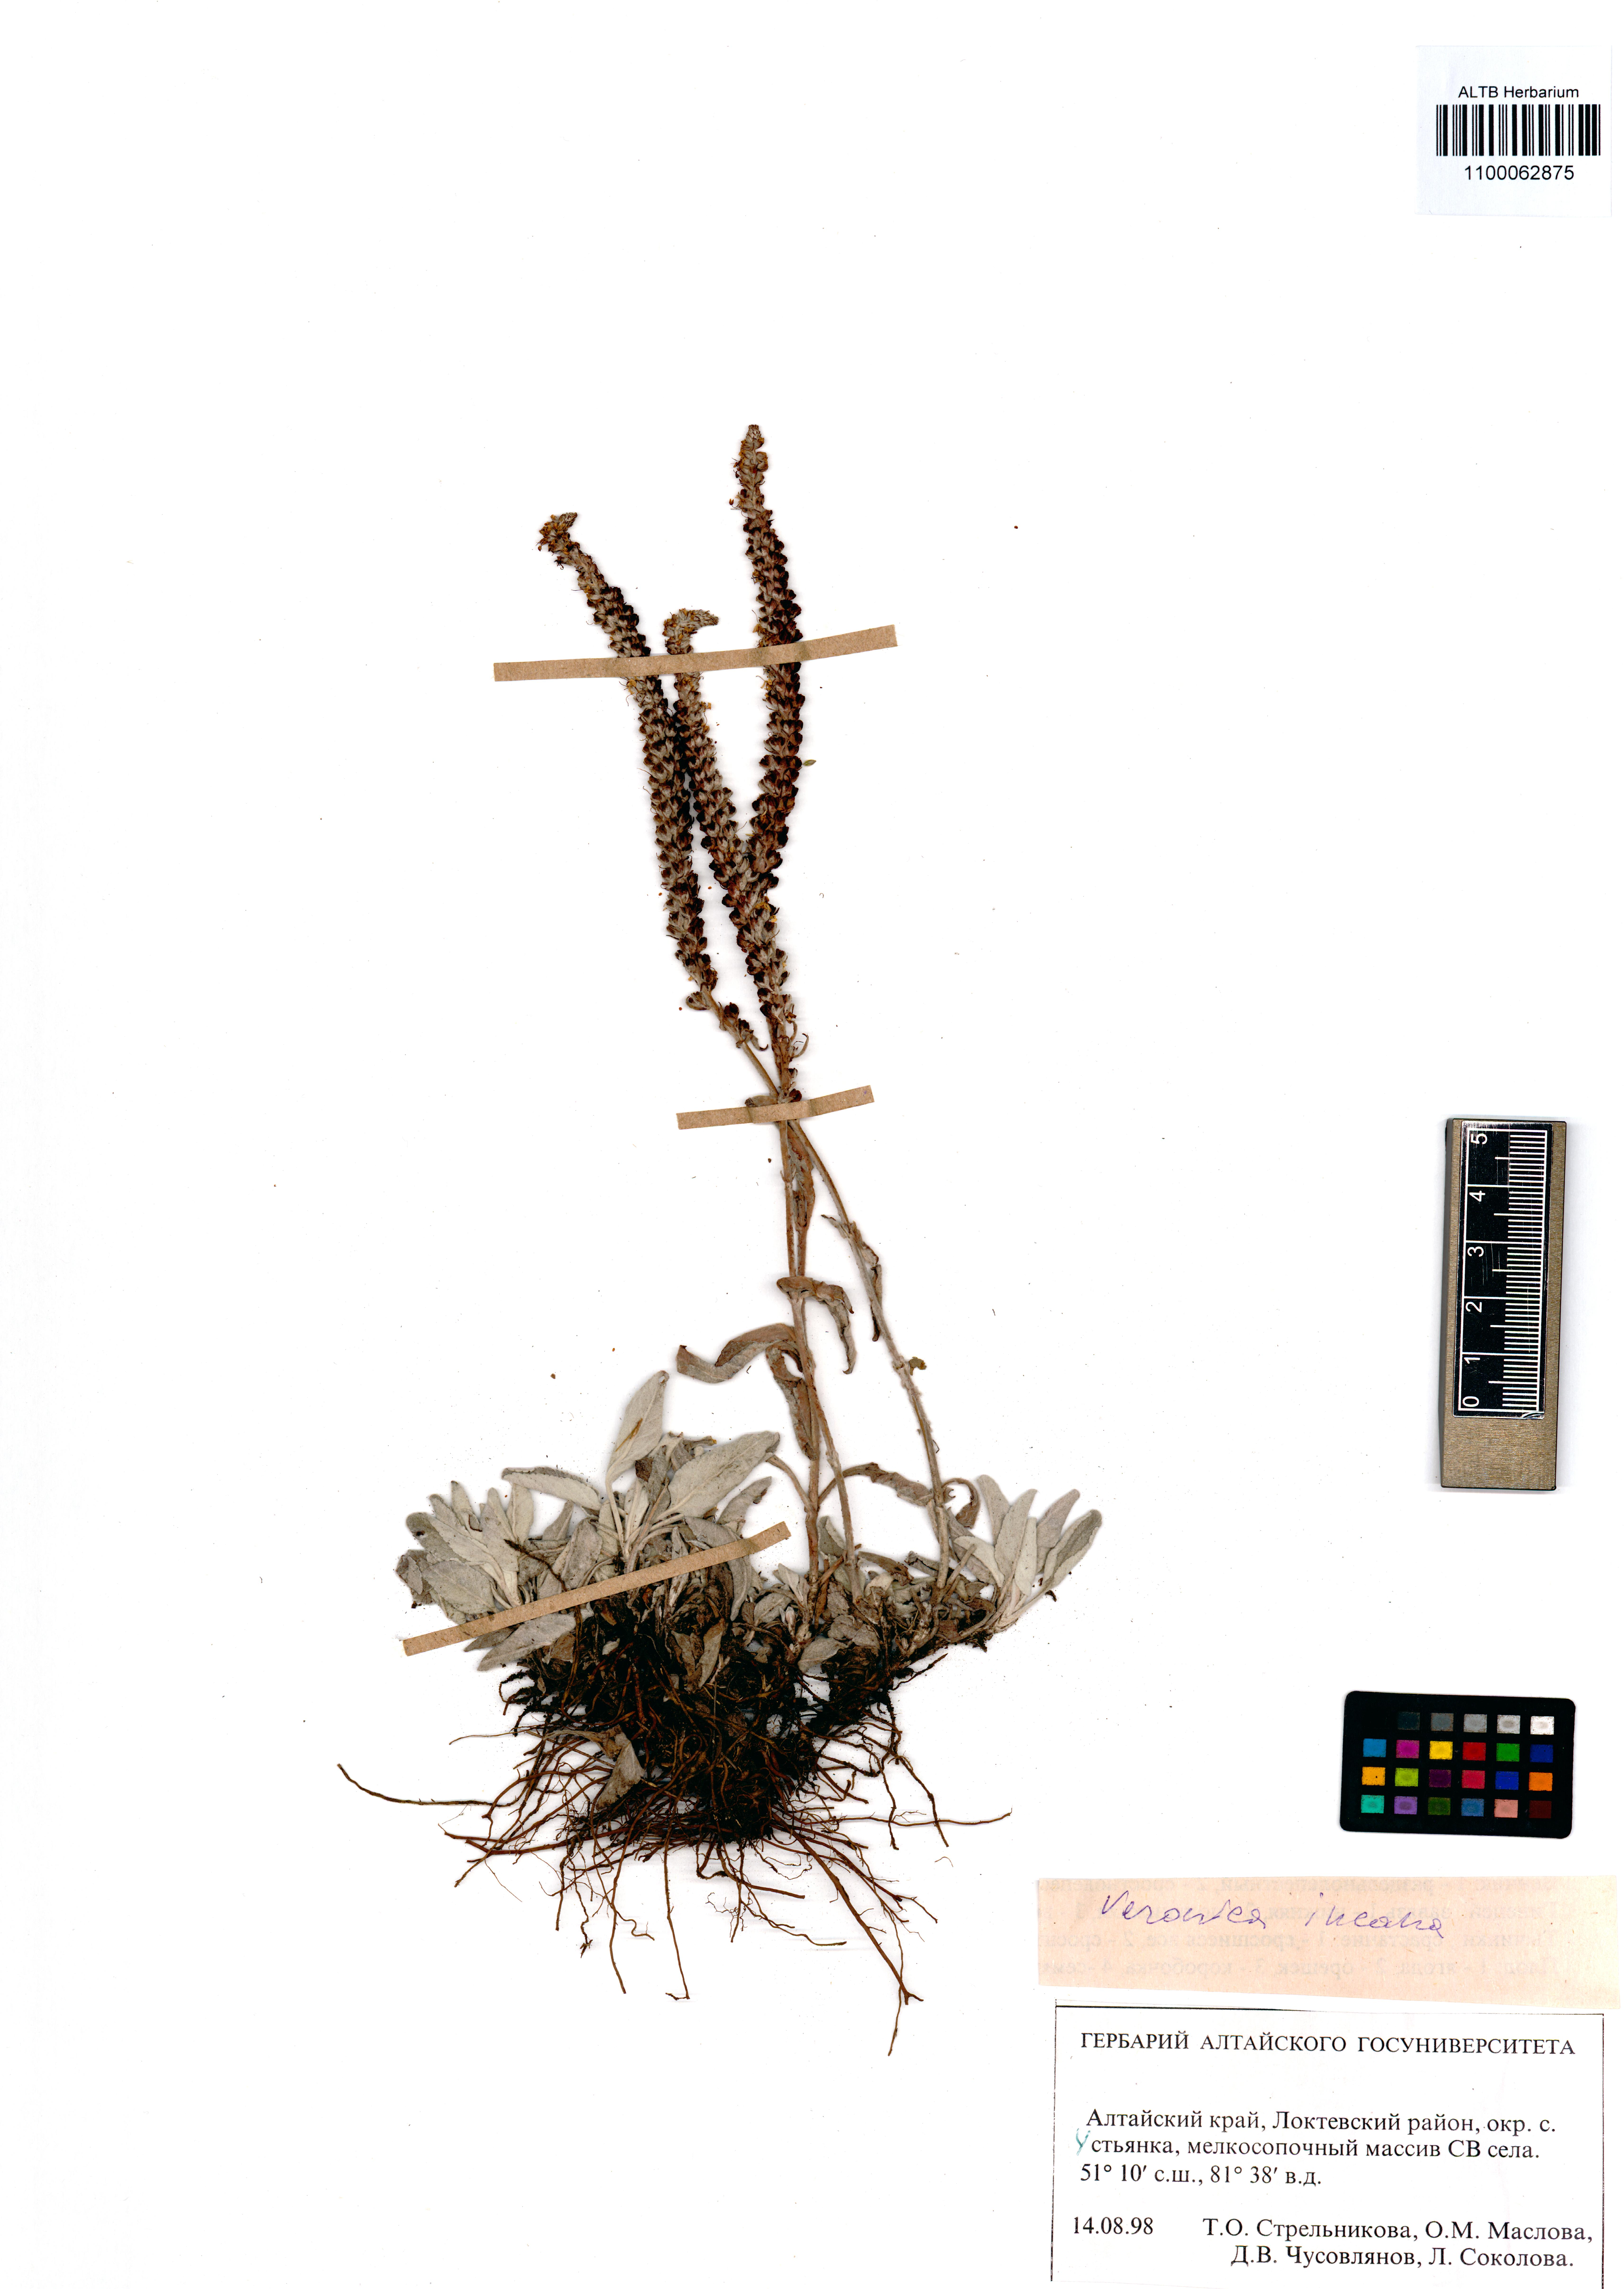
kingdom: Plantae
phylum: Tracheophyta
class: Magnoliopsida
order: Lamiales
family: Plantaginaceae
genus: Veronica
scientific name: Veronica incana
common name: Silver speedwell
